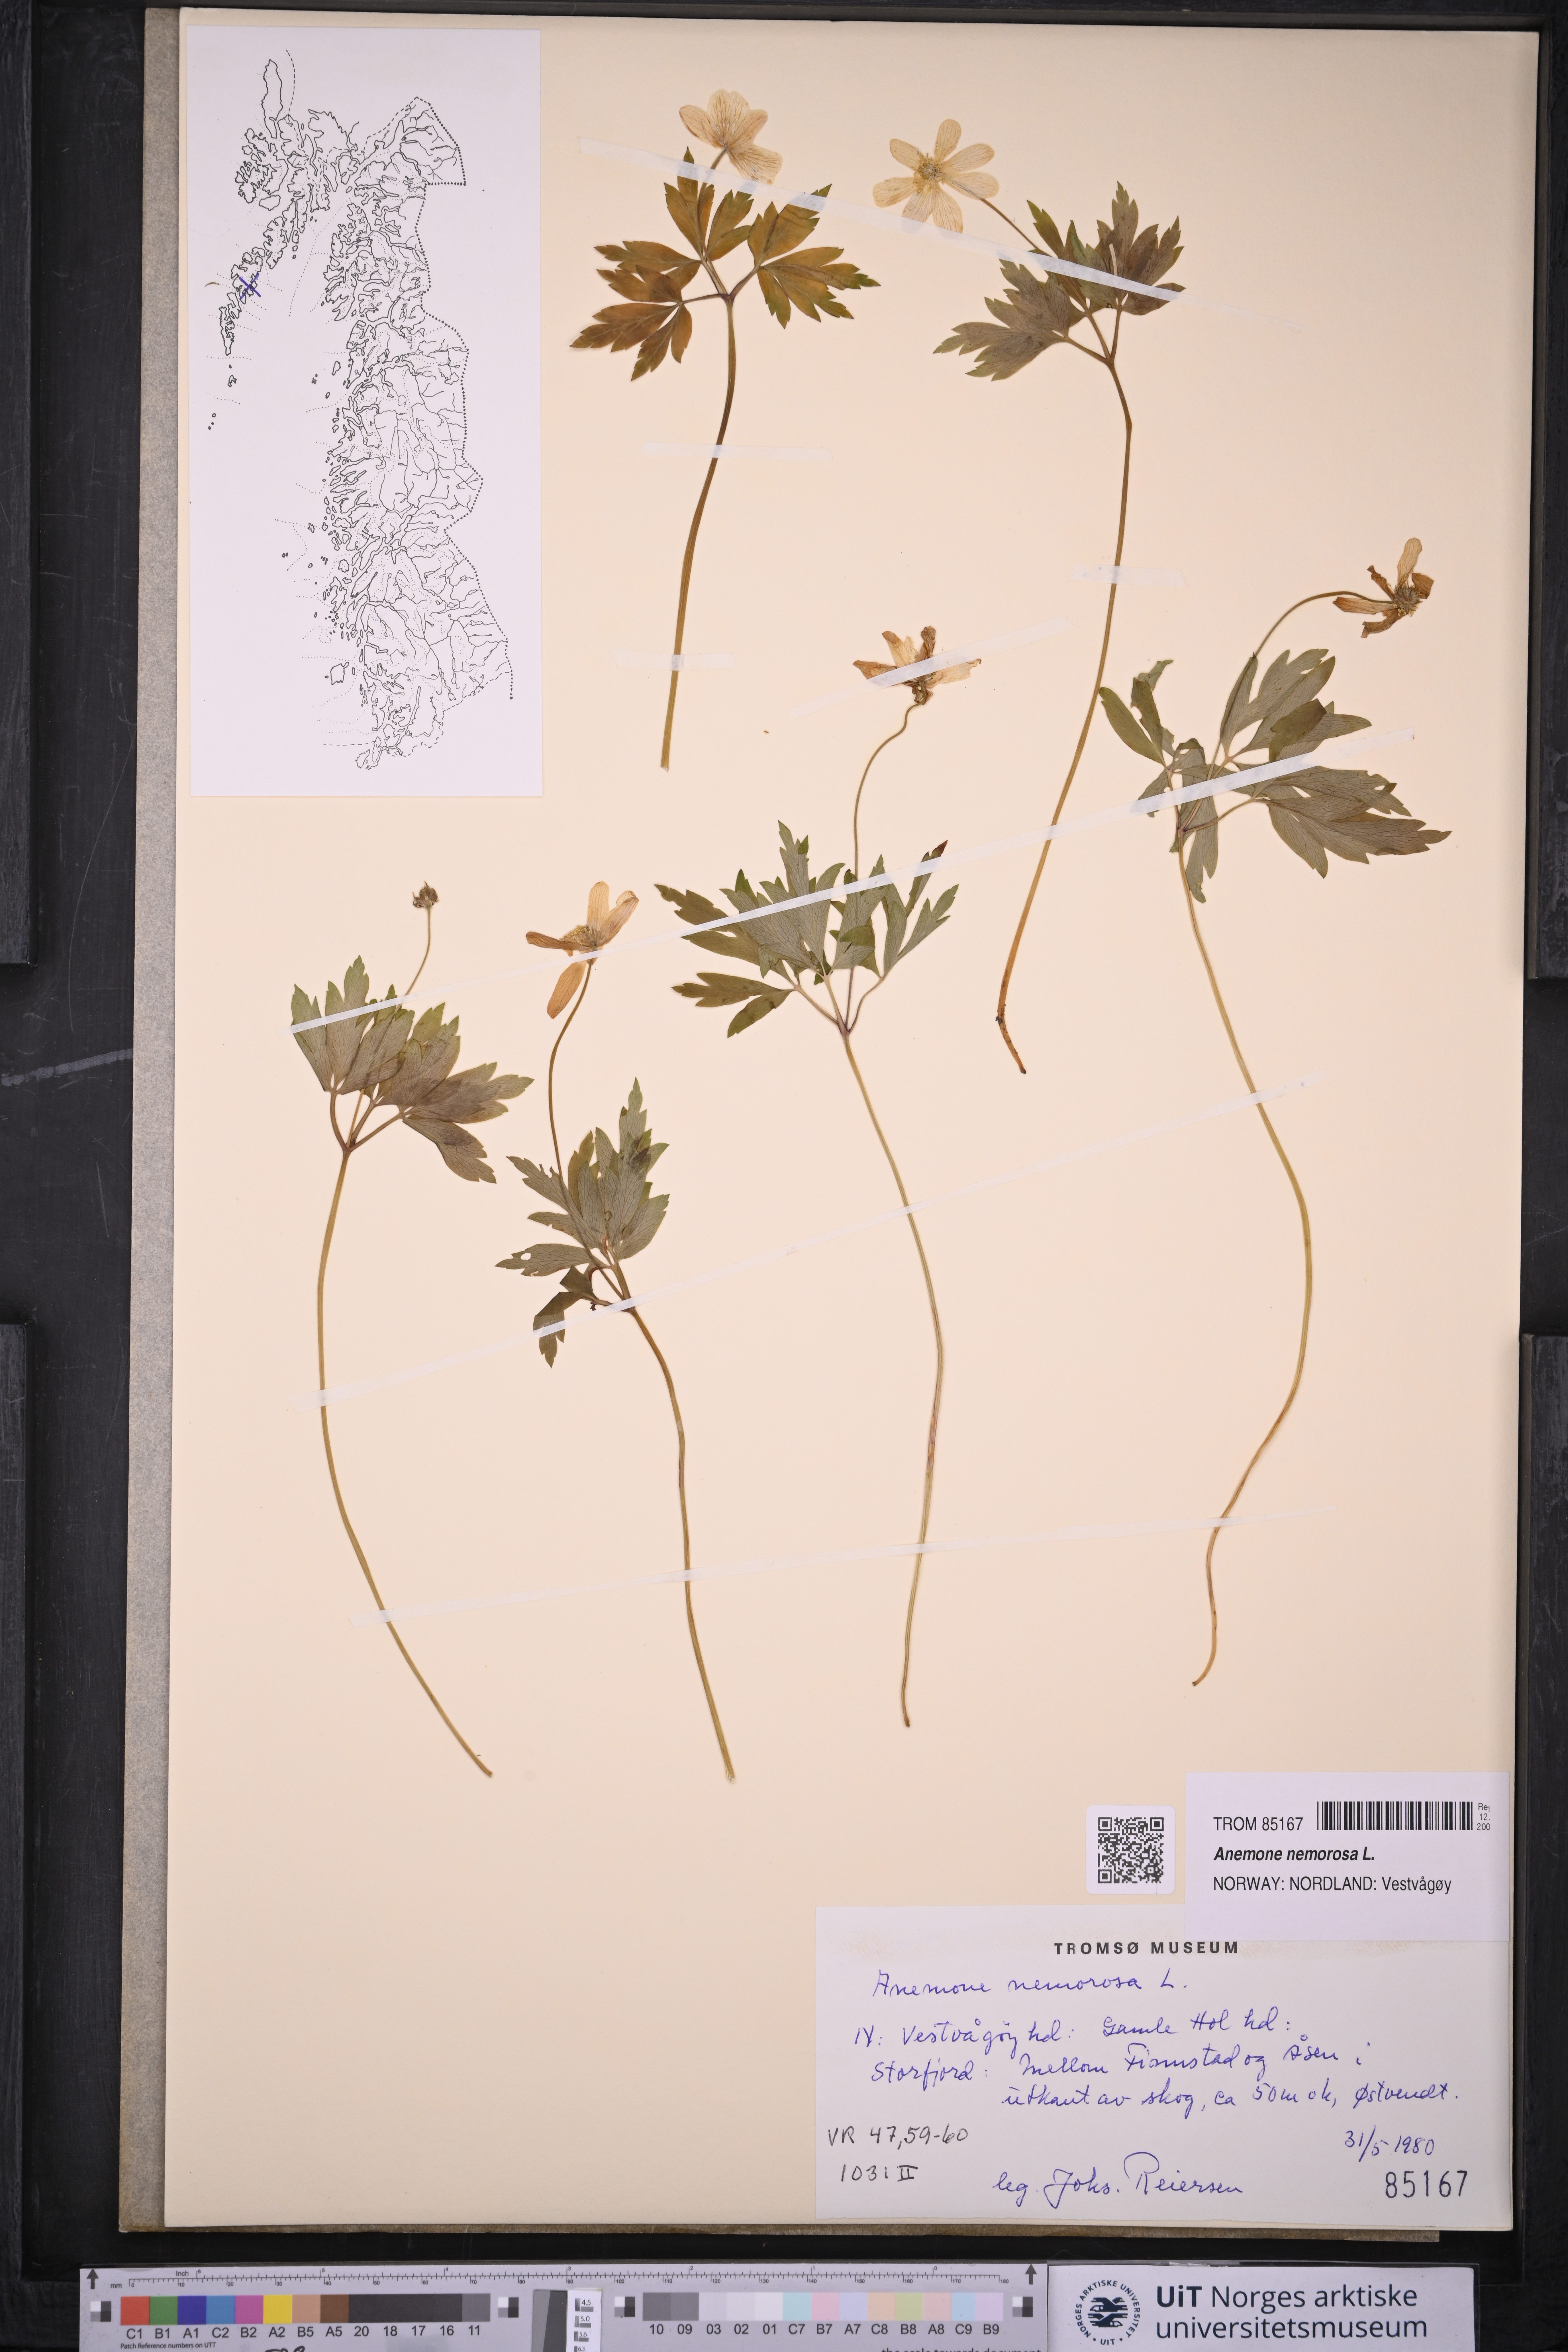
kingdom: Plantae
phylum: Tracheophyta
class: Magnoliopsida
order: Ranunculales
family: Ranunculaceae
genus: Anemone
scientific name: Anemone nemorosa
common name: Wood anemone
